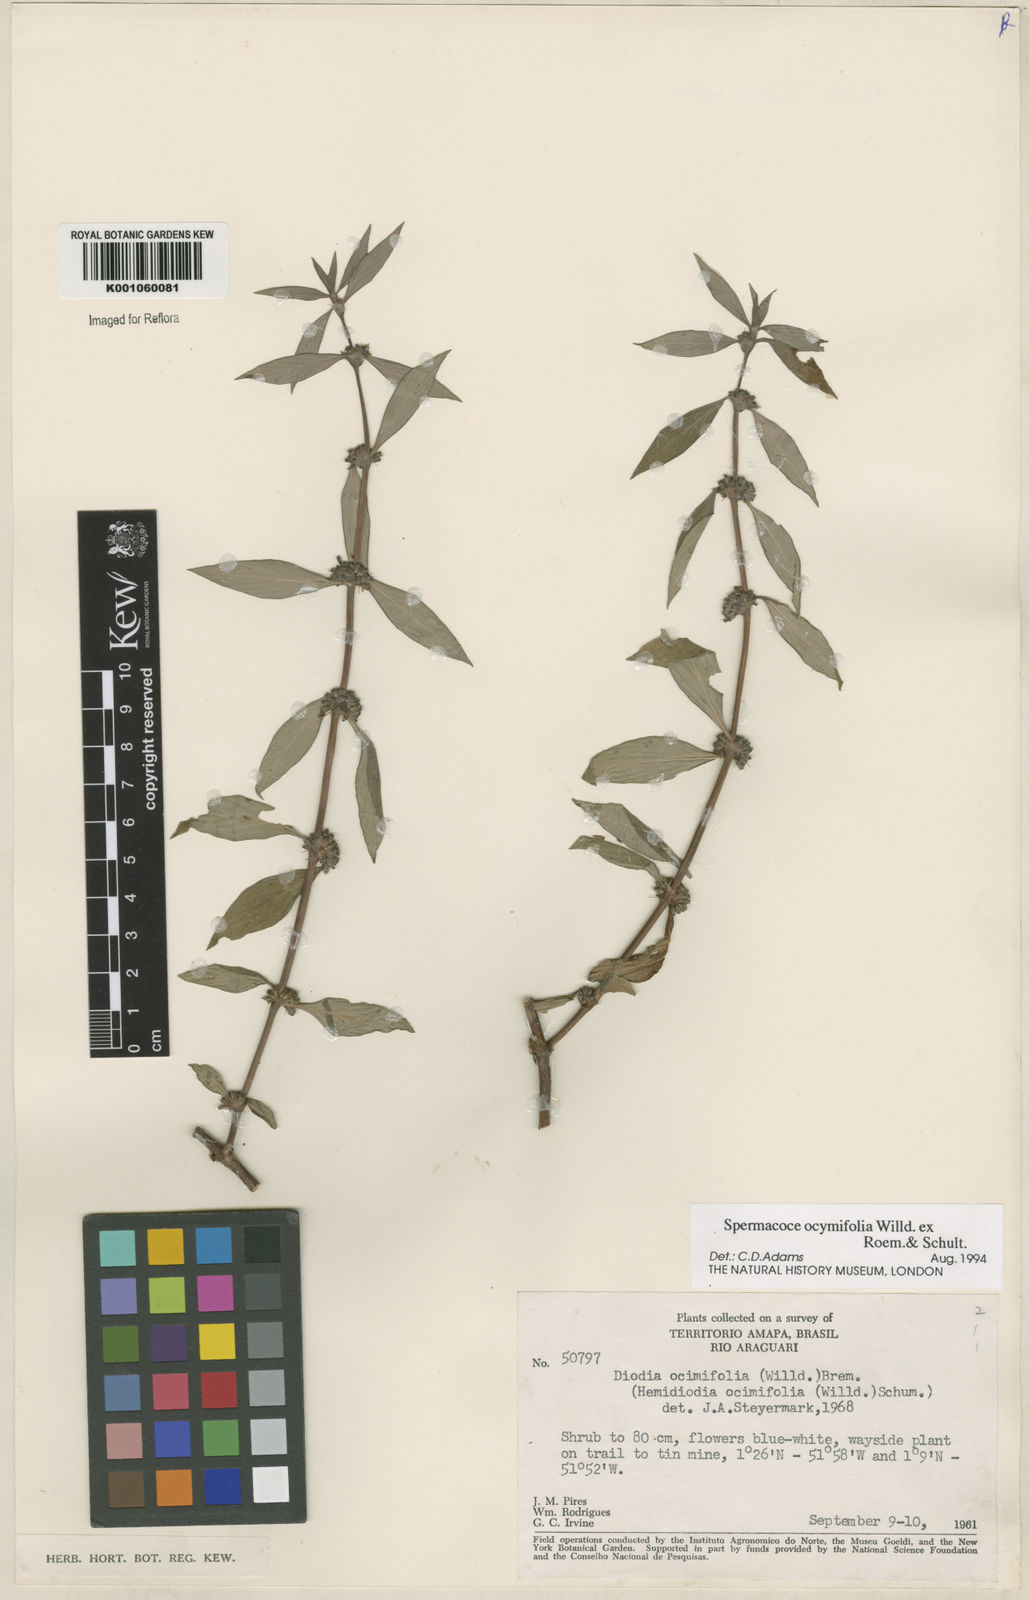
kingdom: Plantae
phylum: Tracheophyta
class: Magnoliopsida
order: Gentianales
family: Rubiaceae
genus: Spermacoce
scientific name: Spermacoce
